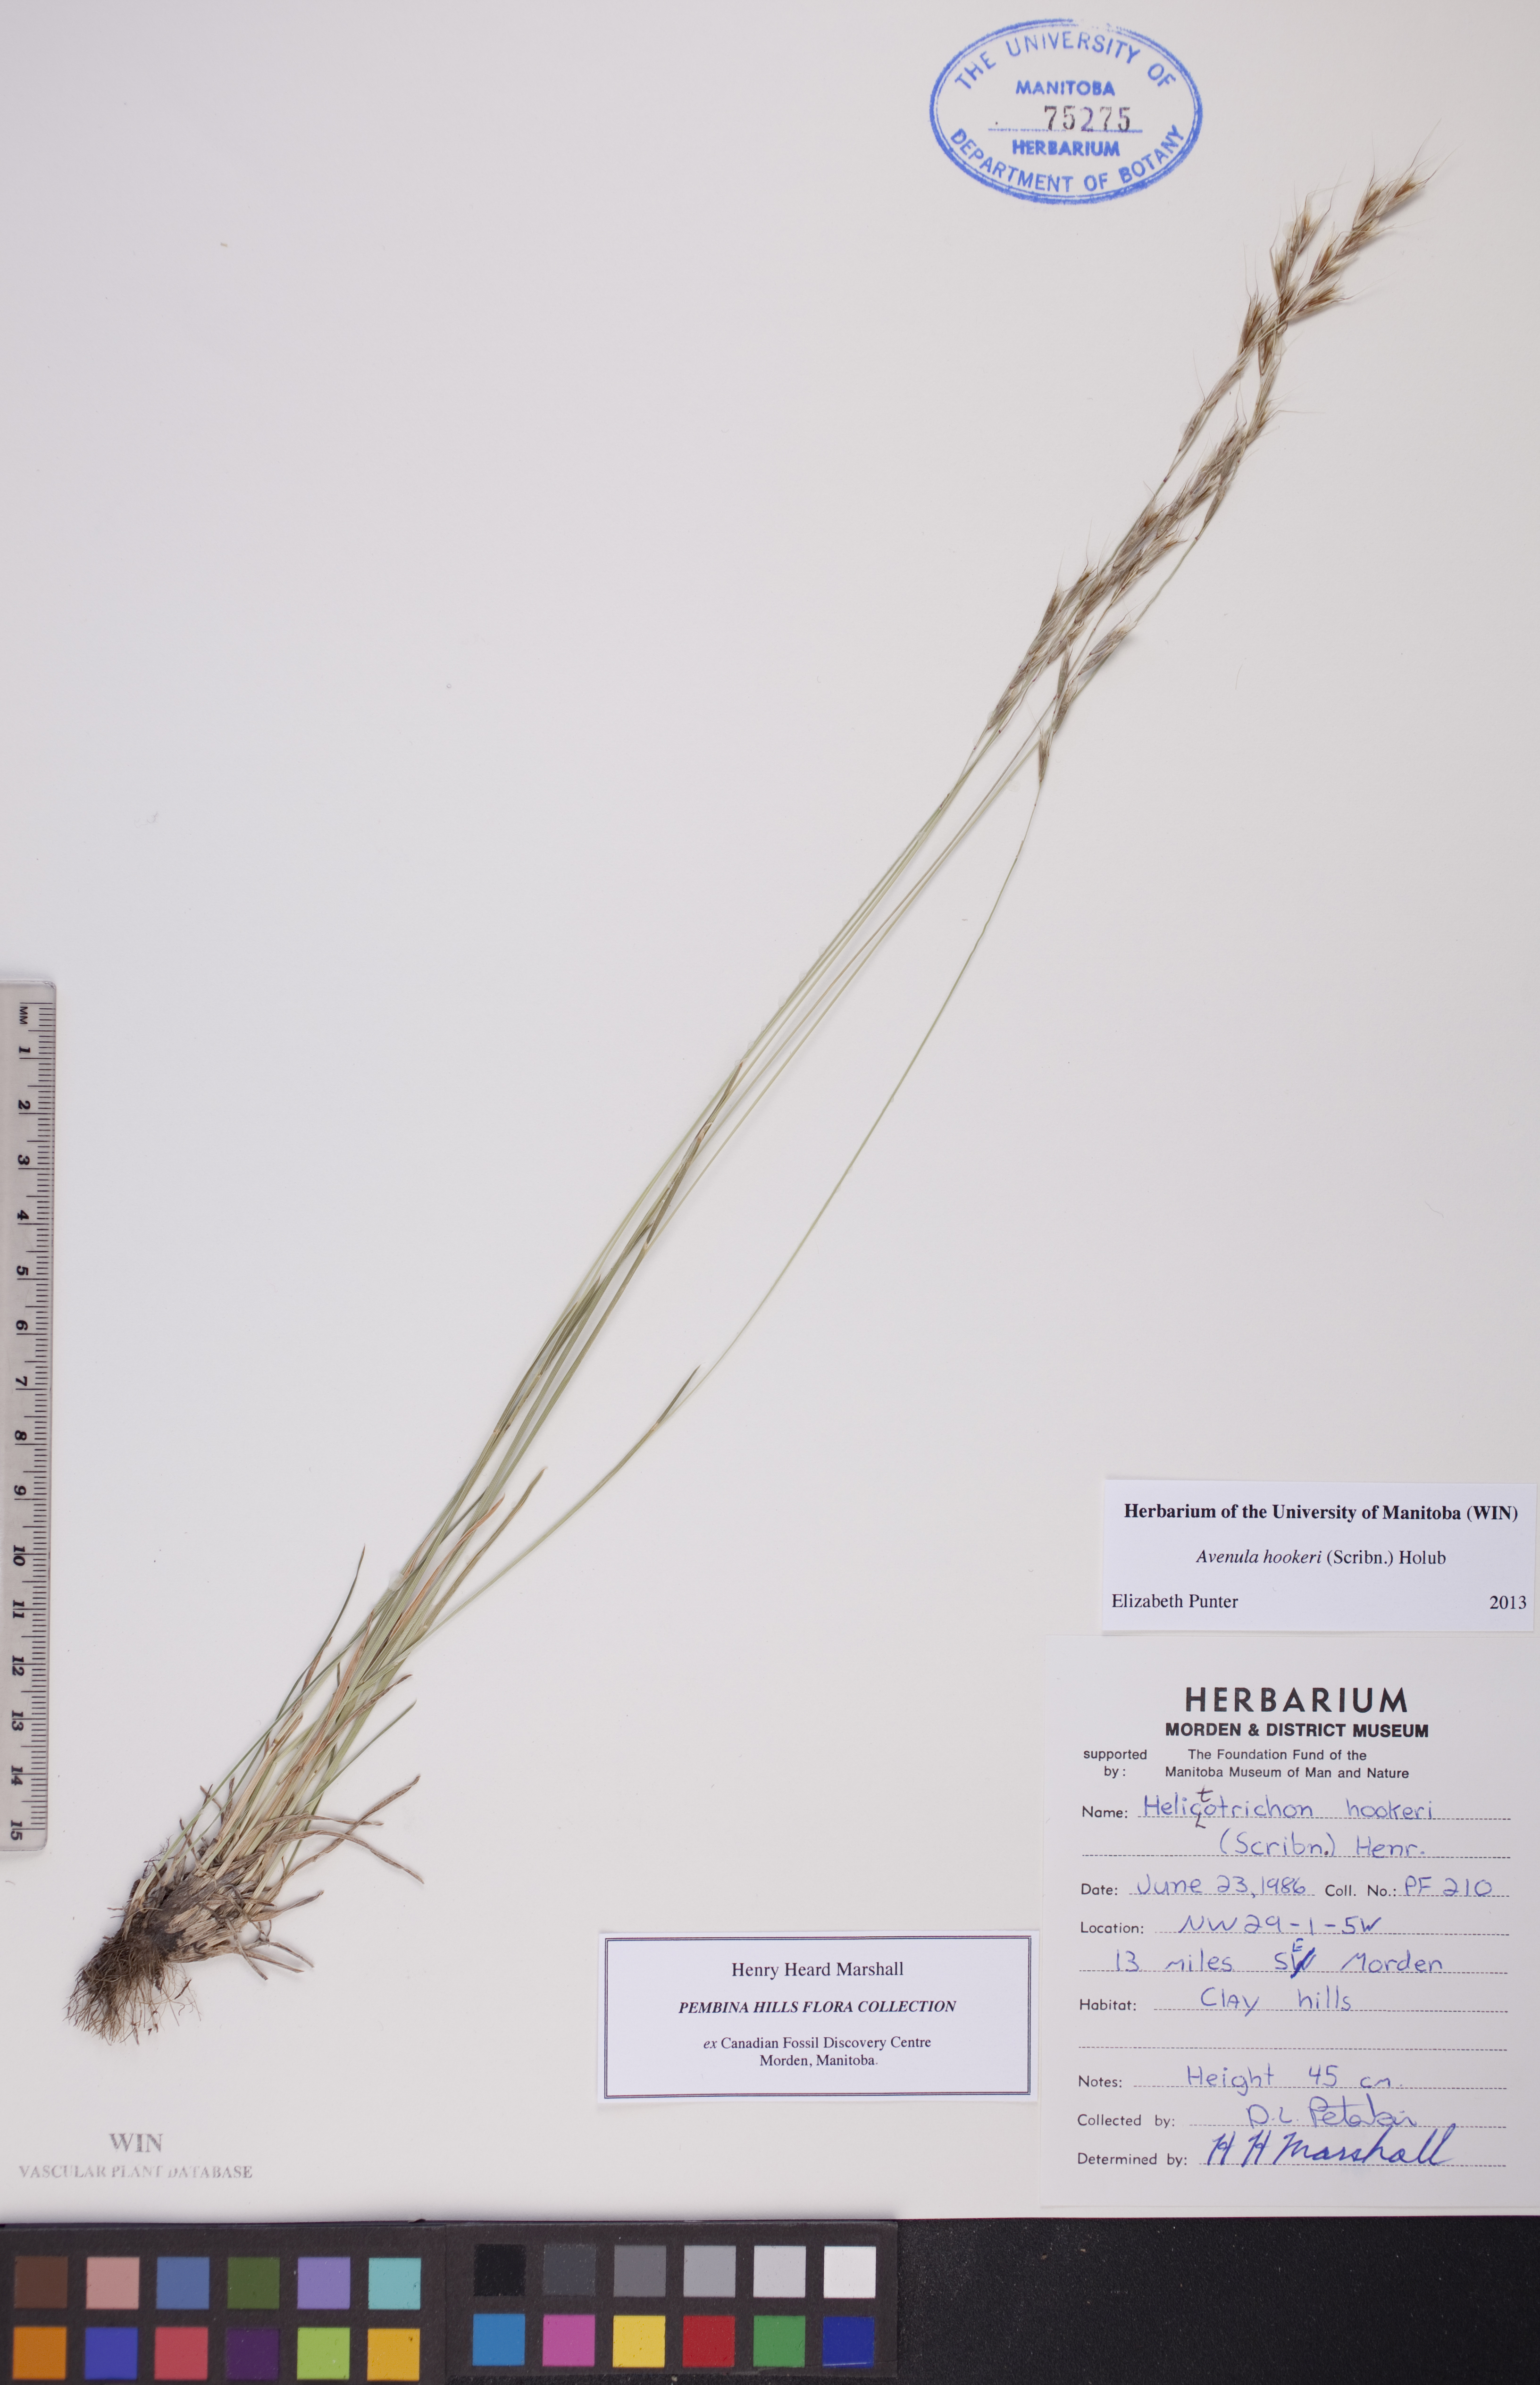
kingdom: Plantae
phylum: Tracheophyta
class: Liliopsida
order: Poales
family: Poaceae
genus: Helictochloa
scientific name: Helictochloa hookeri
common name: Hooker's alpine oatgrass
